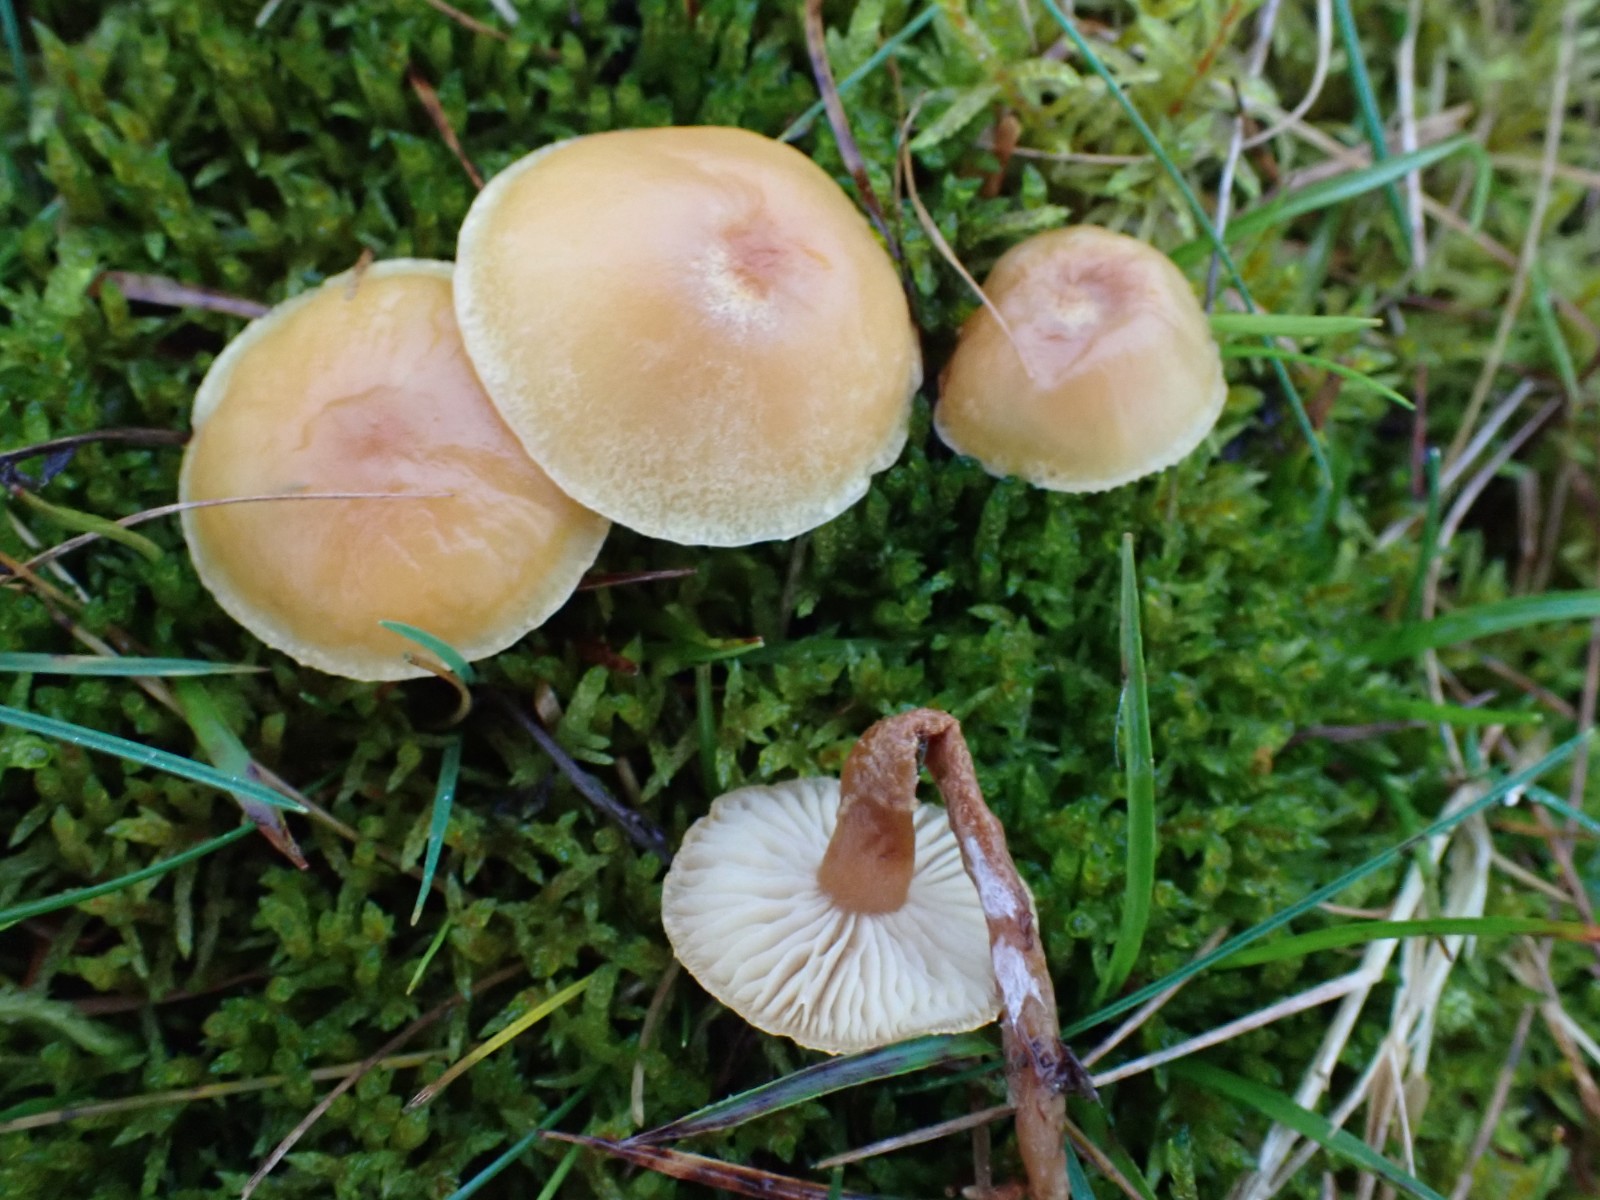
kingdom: Fungi
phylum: Basidiomycota
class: Agaricomycetes
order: Agaricales
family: Tricholomataceae
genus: Cystoderma
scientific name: Cystoderma amianthinum
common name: okkergul grynhat
